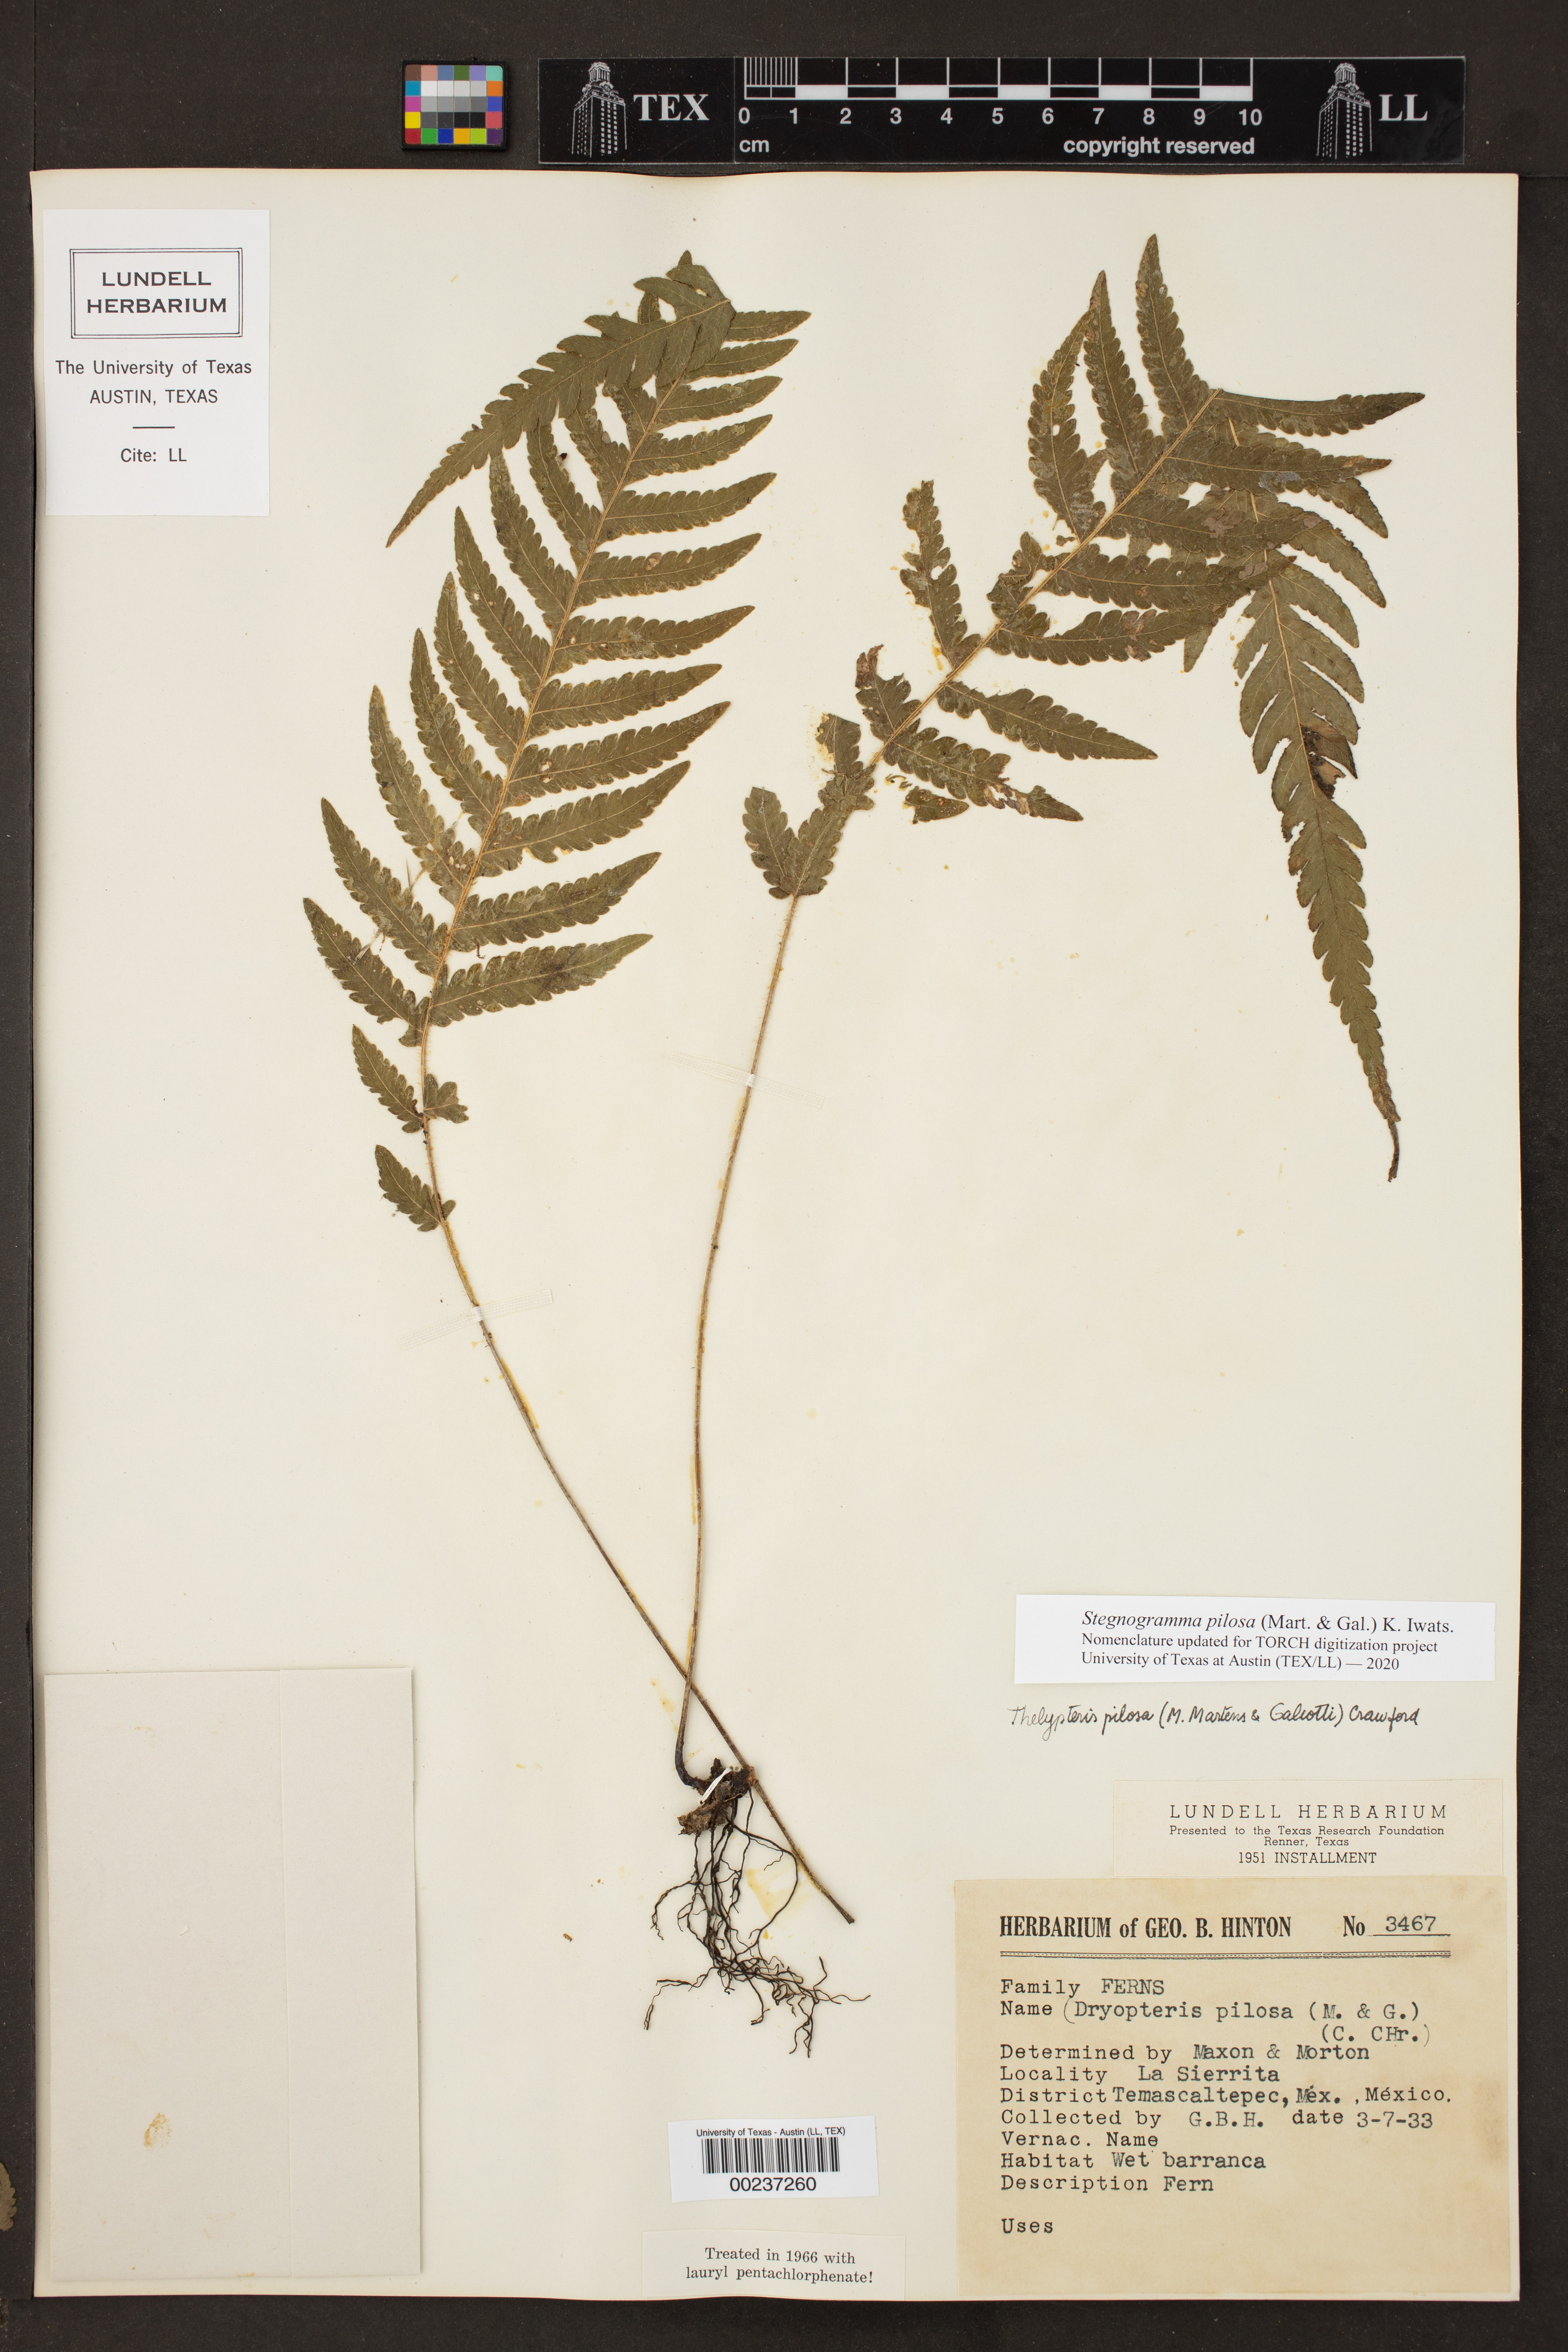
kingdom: Plantae
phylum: Tracheophyta
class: Polypodiopsida
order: Polypodiales
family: Thelypteridaceae
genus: Leptogramma
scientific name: Leptogramma pilosa
